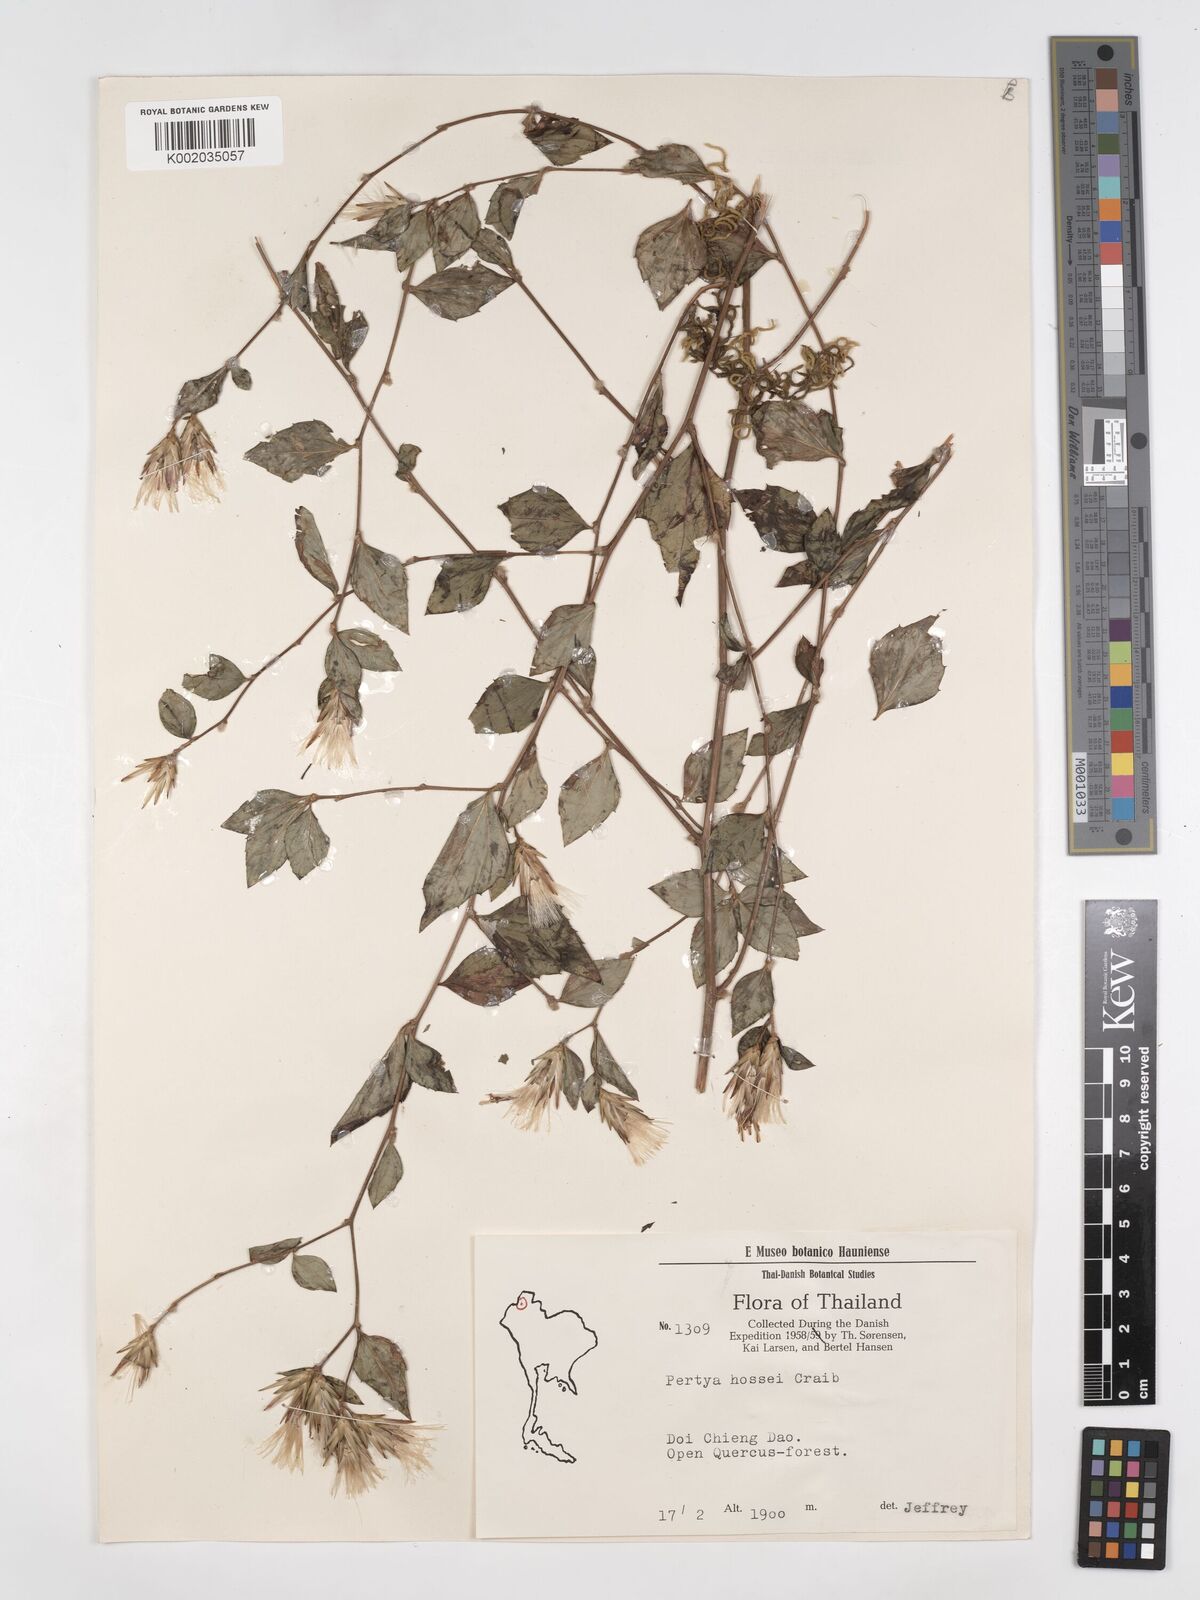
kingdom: Plantae
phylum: Tracheophyta
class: Magnoliopsida
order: Asterales
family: Asteraceae
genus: Pertya
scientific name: Pertya hossei
